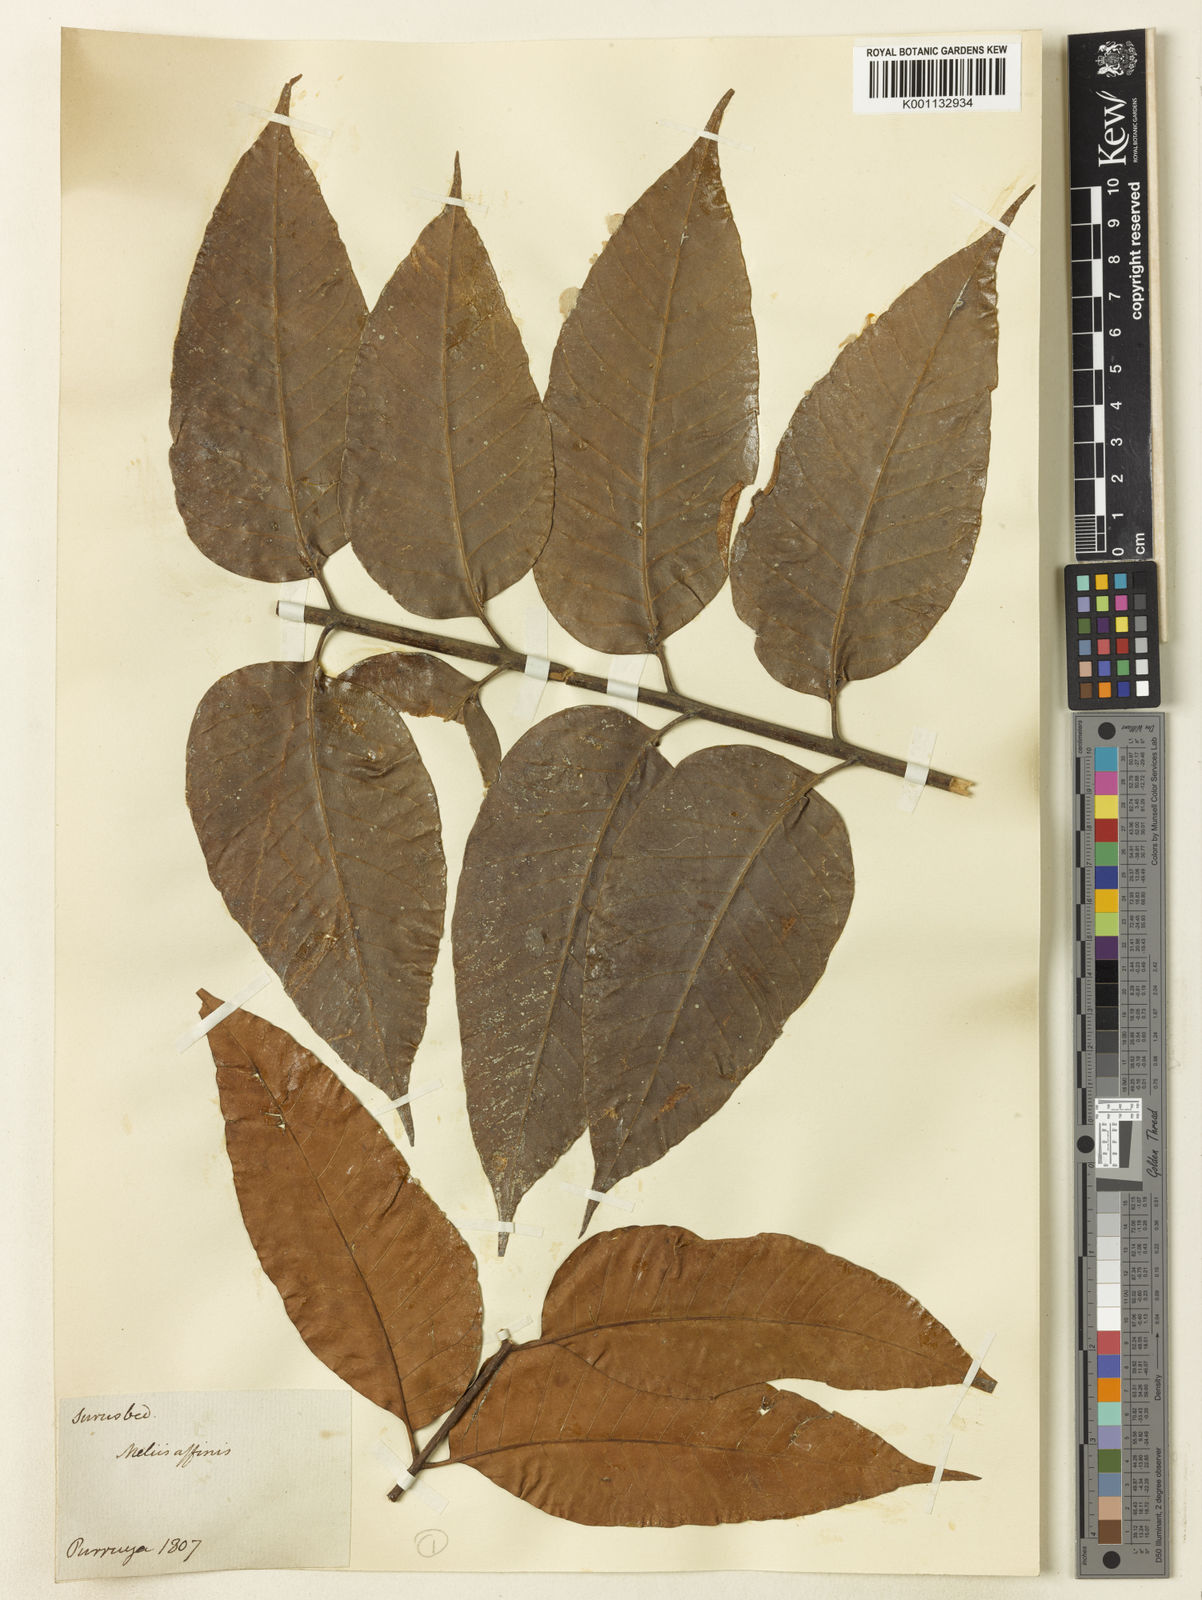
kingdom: Plantae
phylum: Tracheophyta
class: Magnoliopsida
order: Sapindales
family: Sapindaceae
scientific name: Sapindaceae
